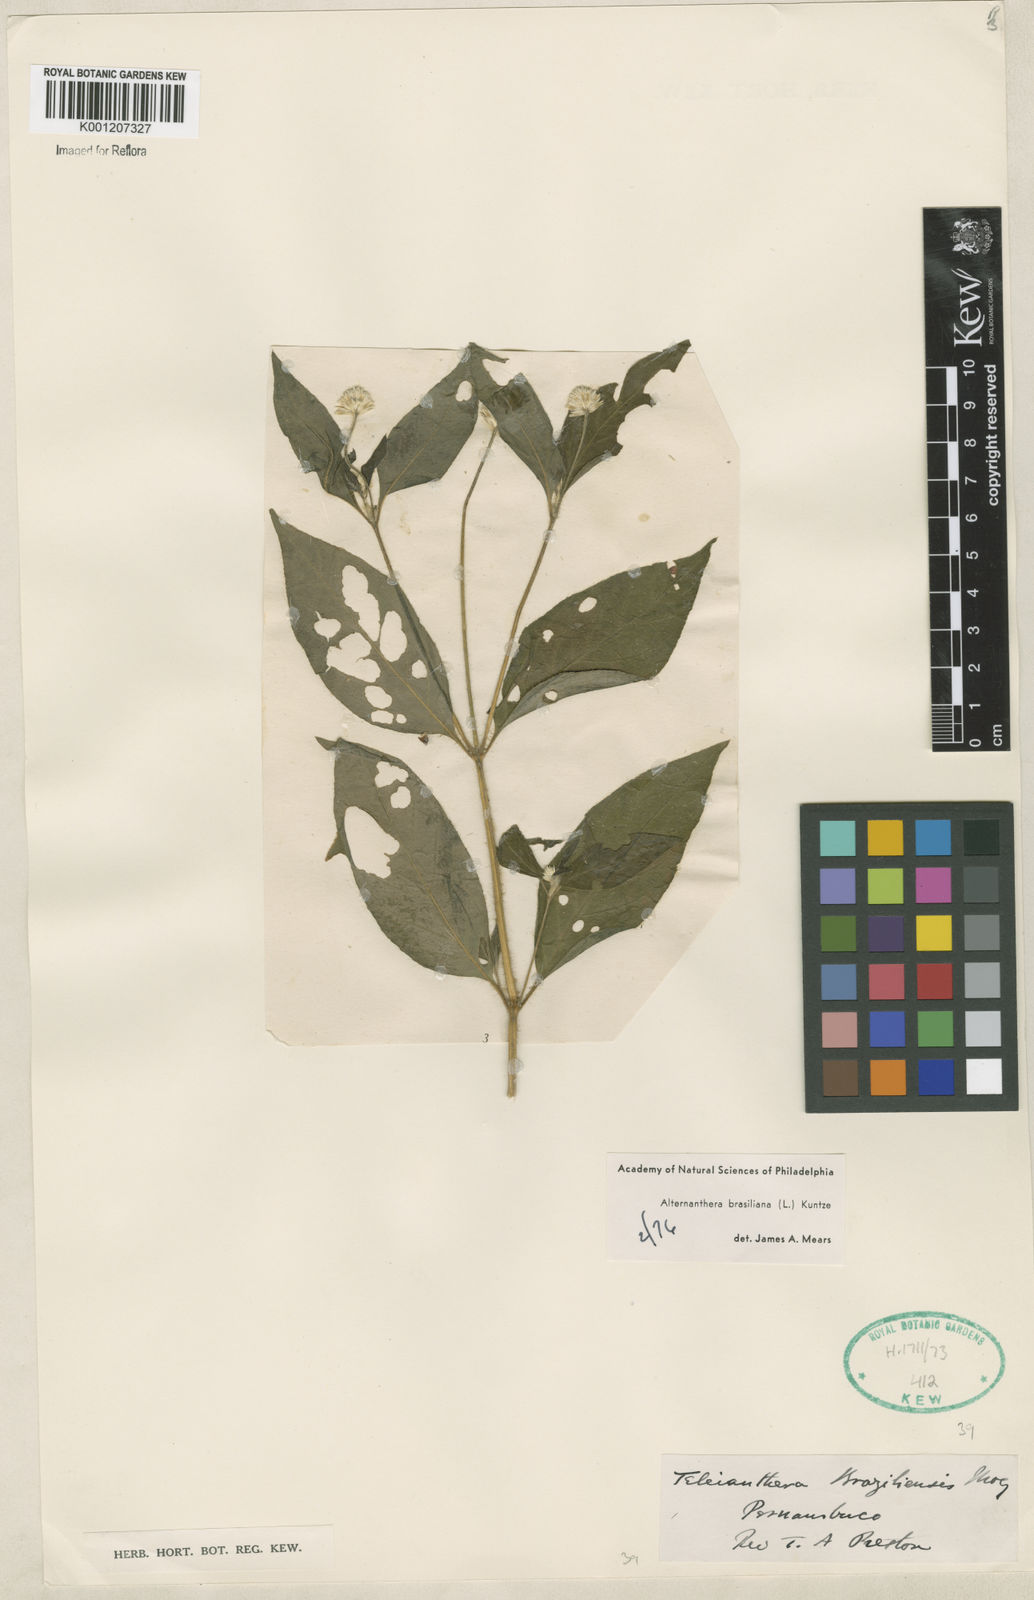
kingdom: Plantae
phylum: Tracheophyta
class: Magnoliopsida
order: Caryophyllales
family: Amaranthaceae
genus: Alternanthera
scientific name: Alternanthera brasiliana
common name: Brazilian joyweed
